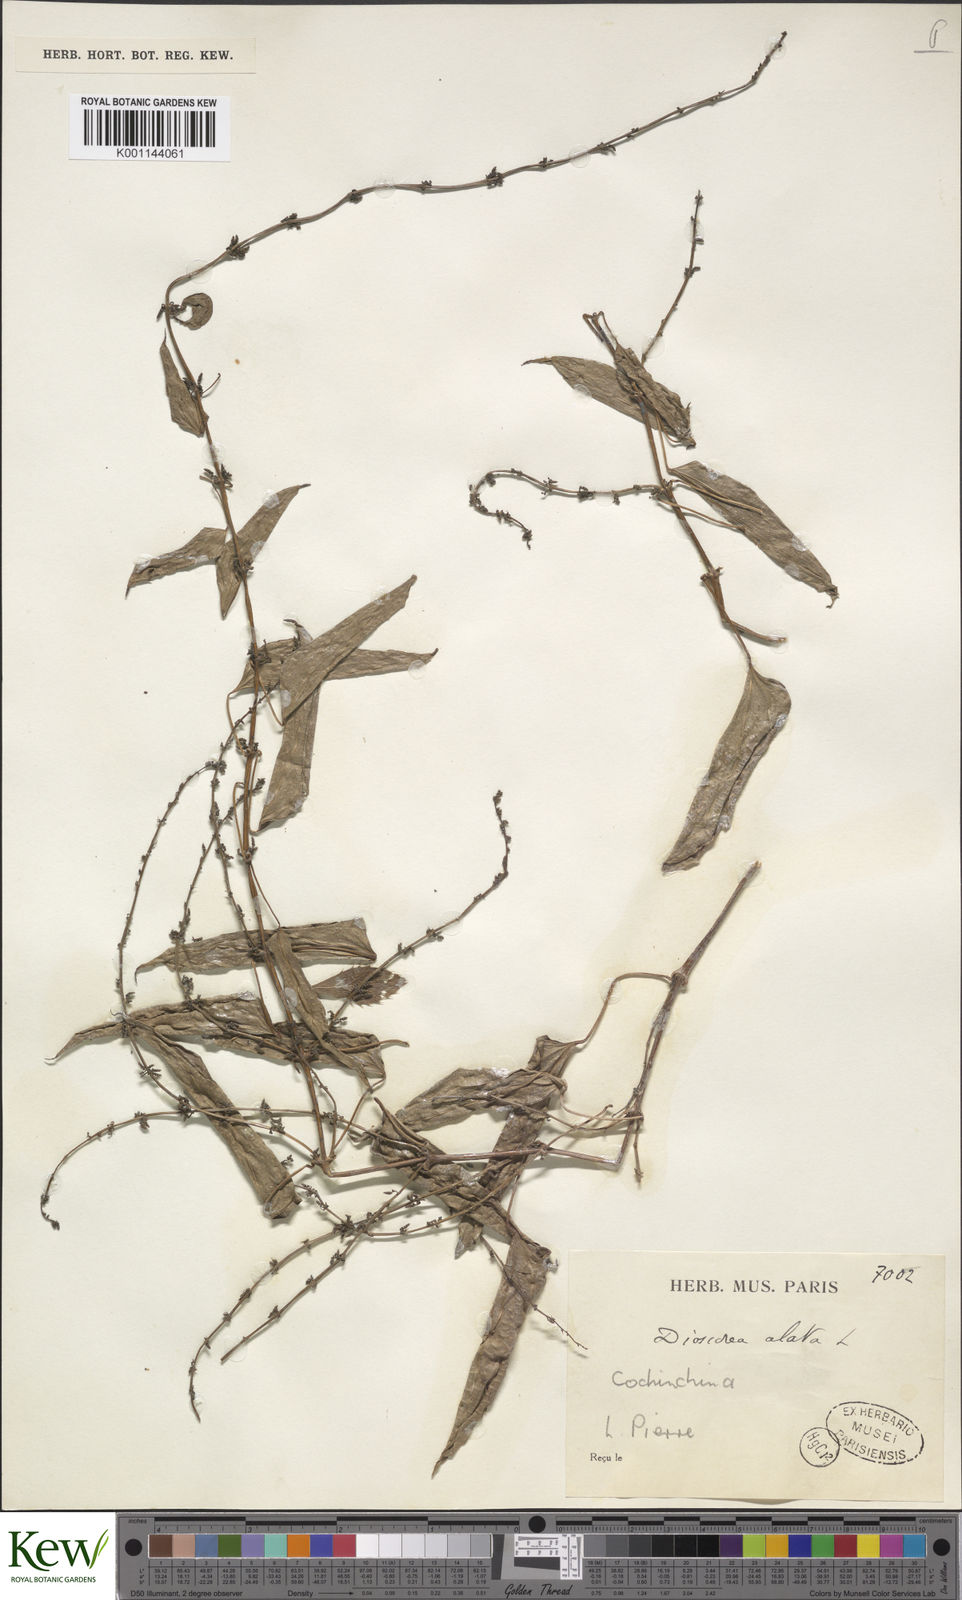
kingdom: Plantae
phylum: Tracheophyta
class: Liliopsida
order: Dioscoreales
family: Dioscoreaceae
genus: Dioscorea
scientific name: Dioscorea alata
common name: Water yam
